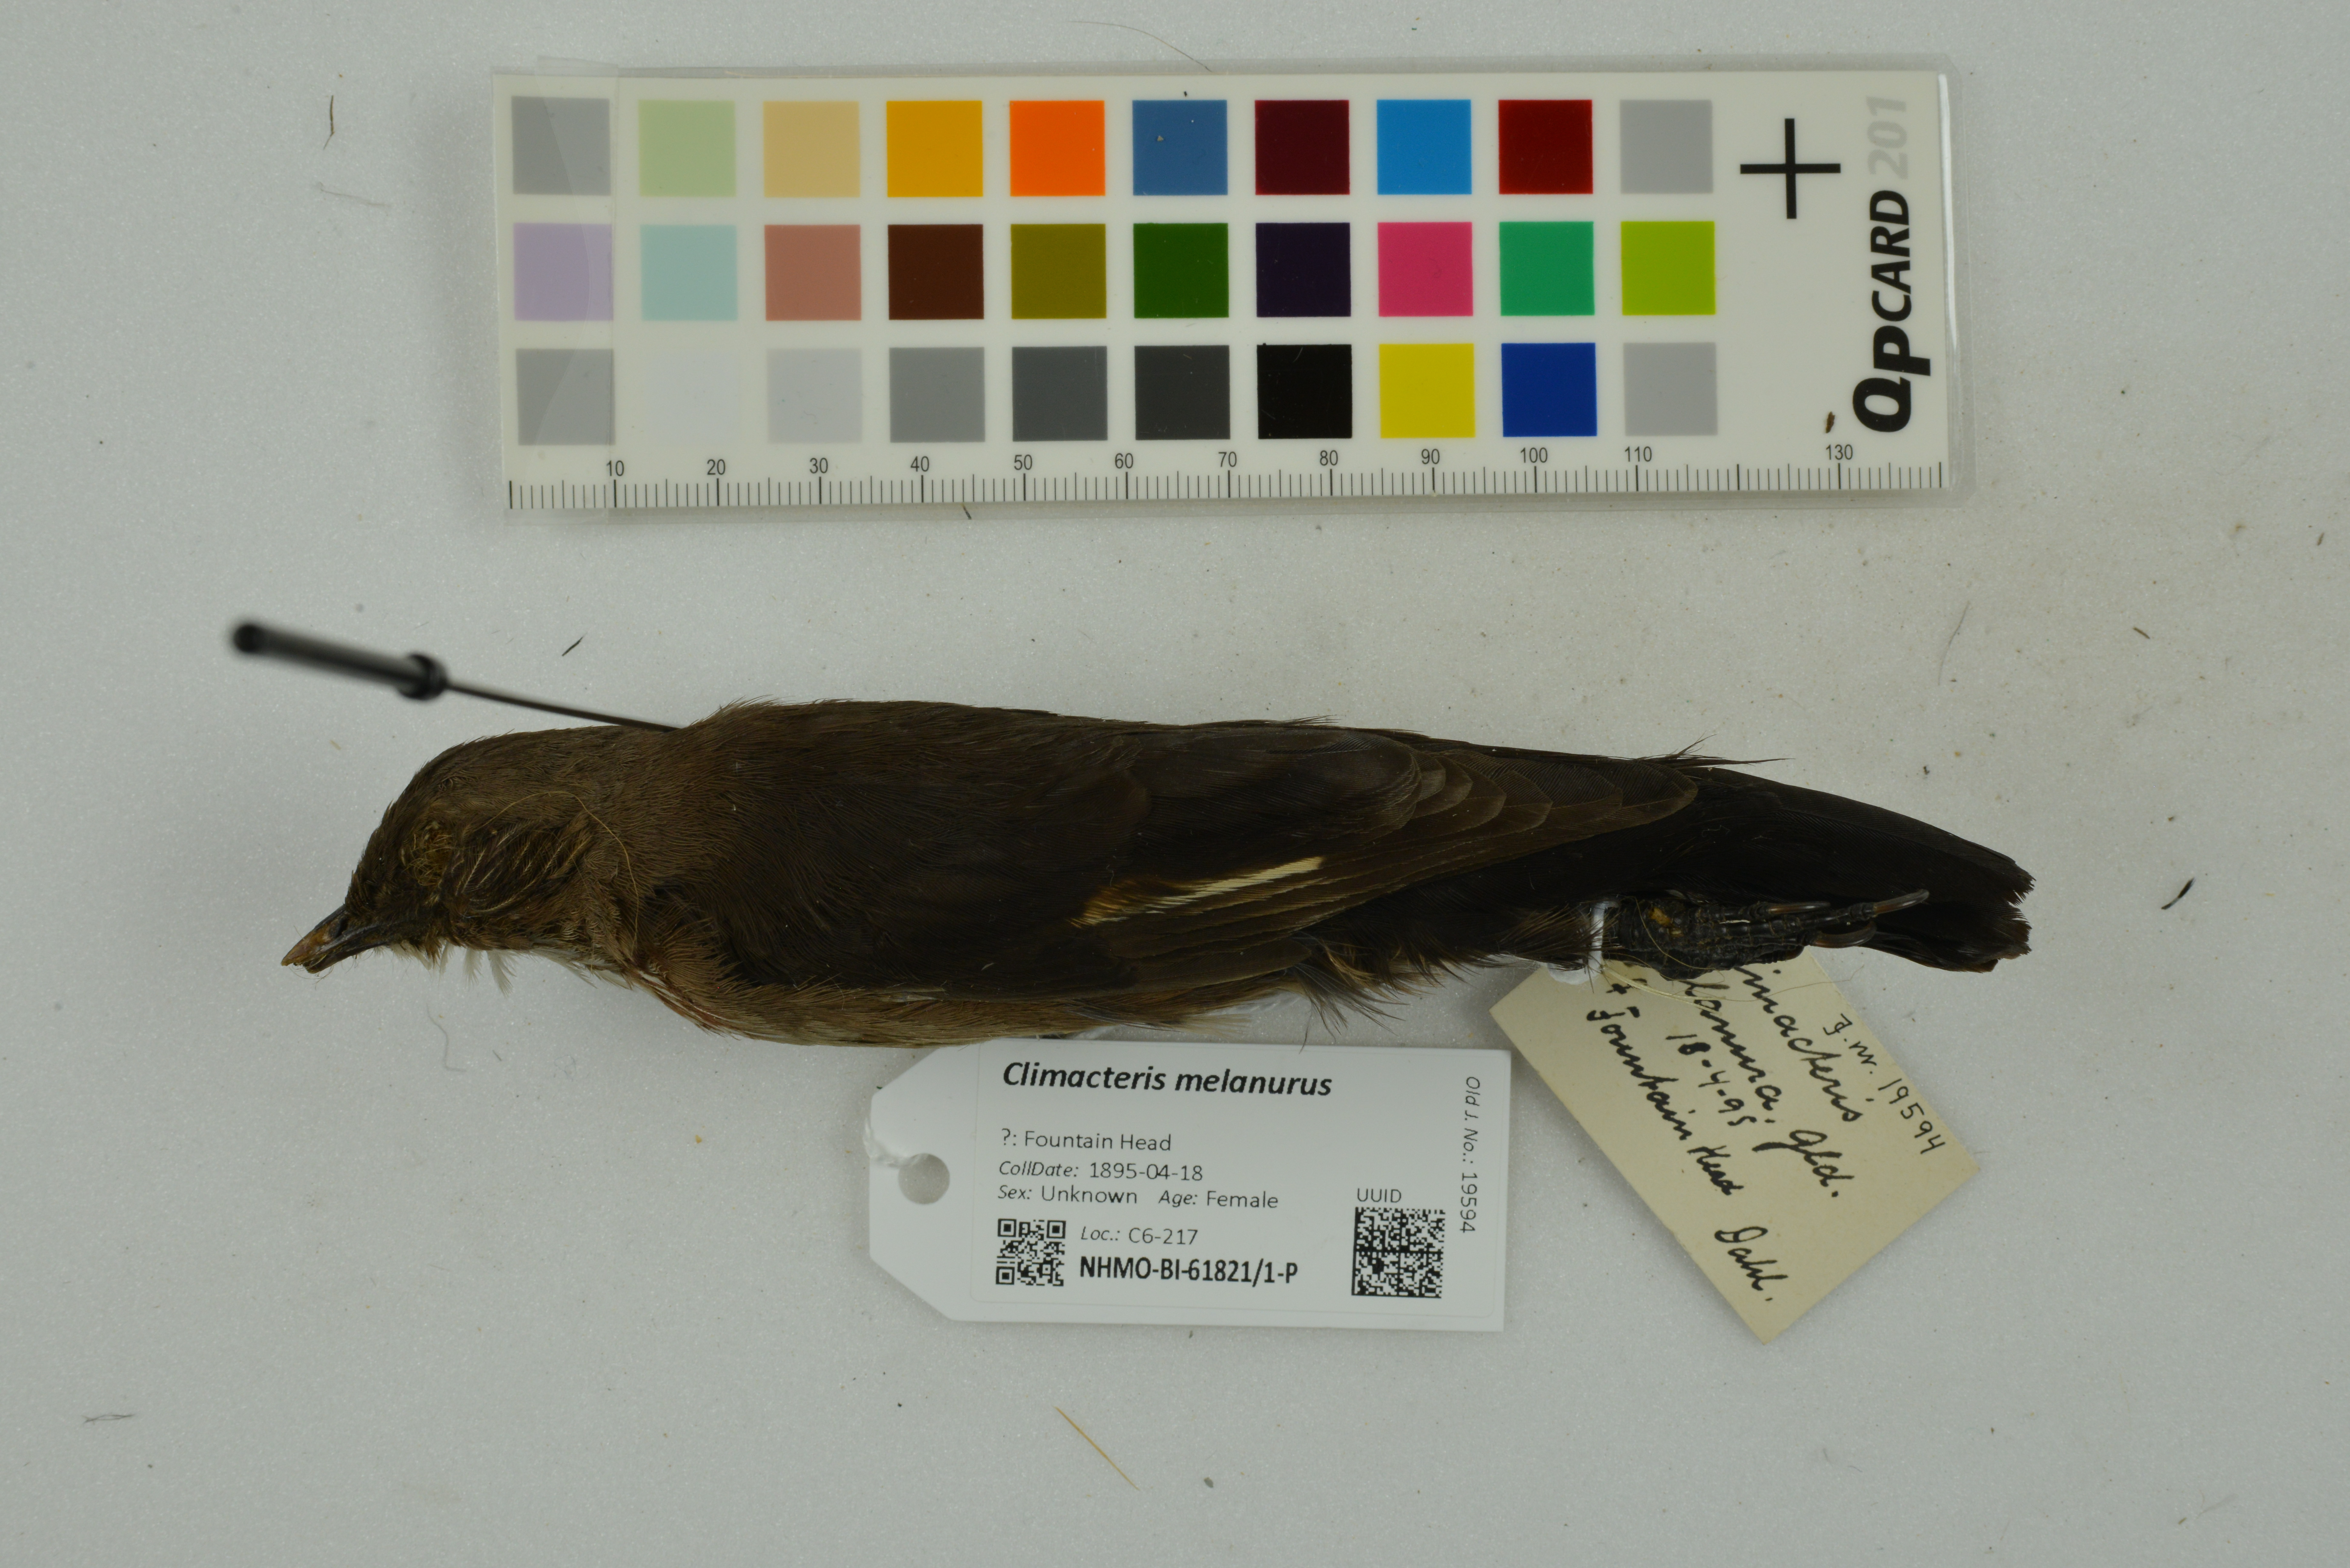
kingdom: Animalia
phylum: Chordata
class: Aves
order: Passeriformes
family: Climacteridae
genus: Climacteris
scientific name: Climacteris melanurus
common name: Black-tailed treecreeper
